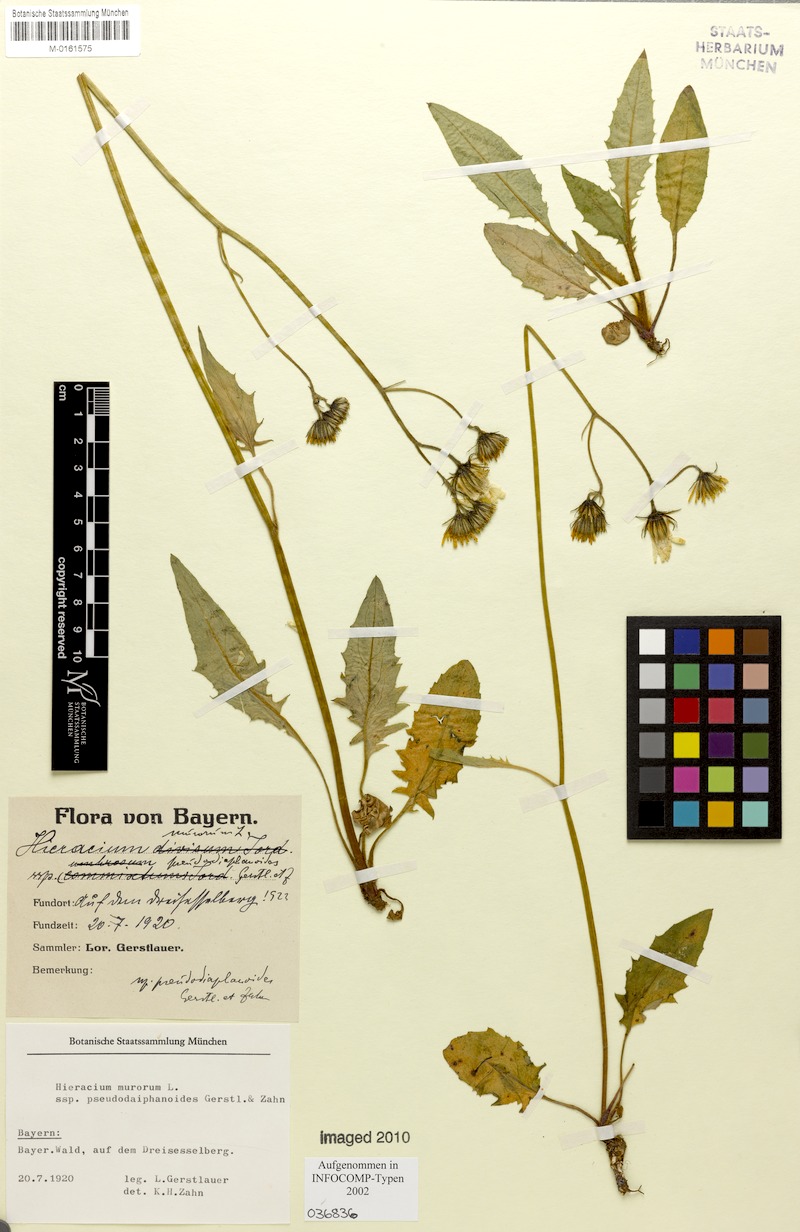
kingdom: Plantae
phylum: Tracheophyta
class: Magnoliopsida
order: Asterales
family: Asteraceae
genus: Hieracium
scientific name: Hieracium murorum
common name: Wall hawkweed
